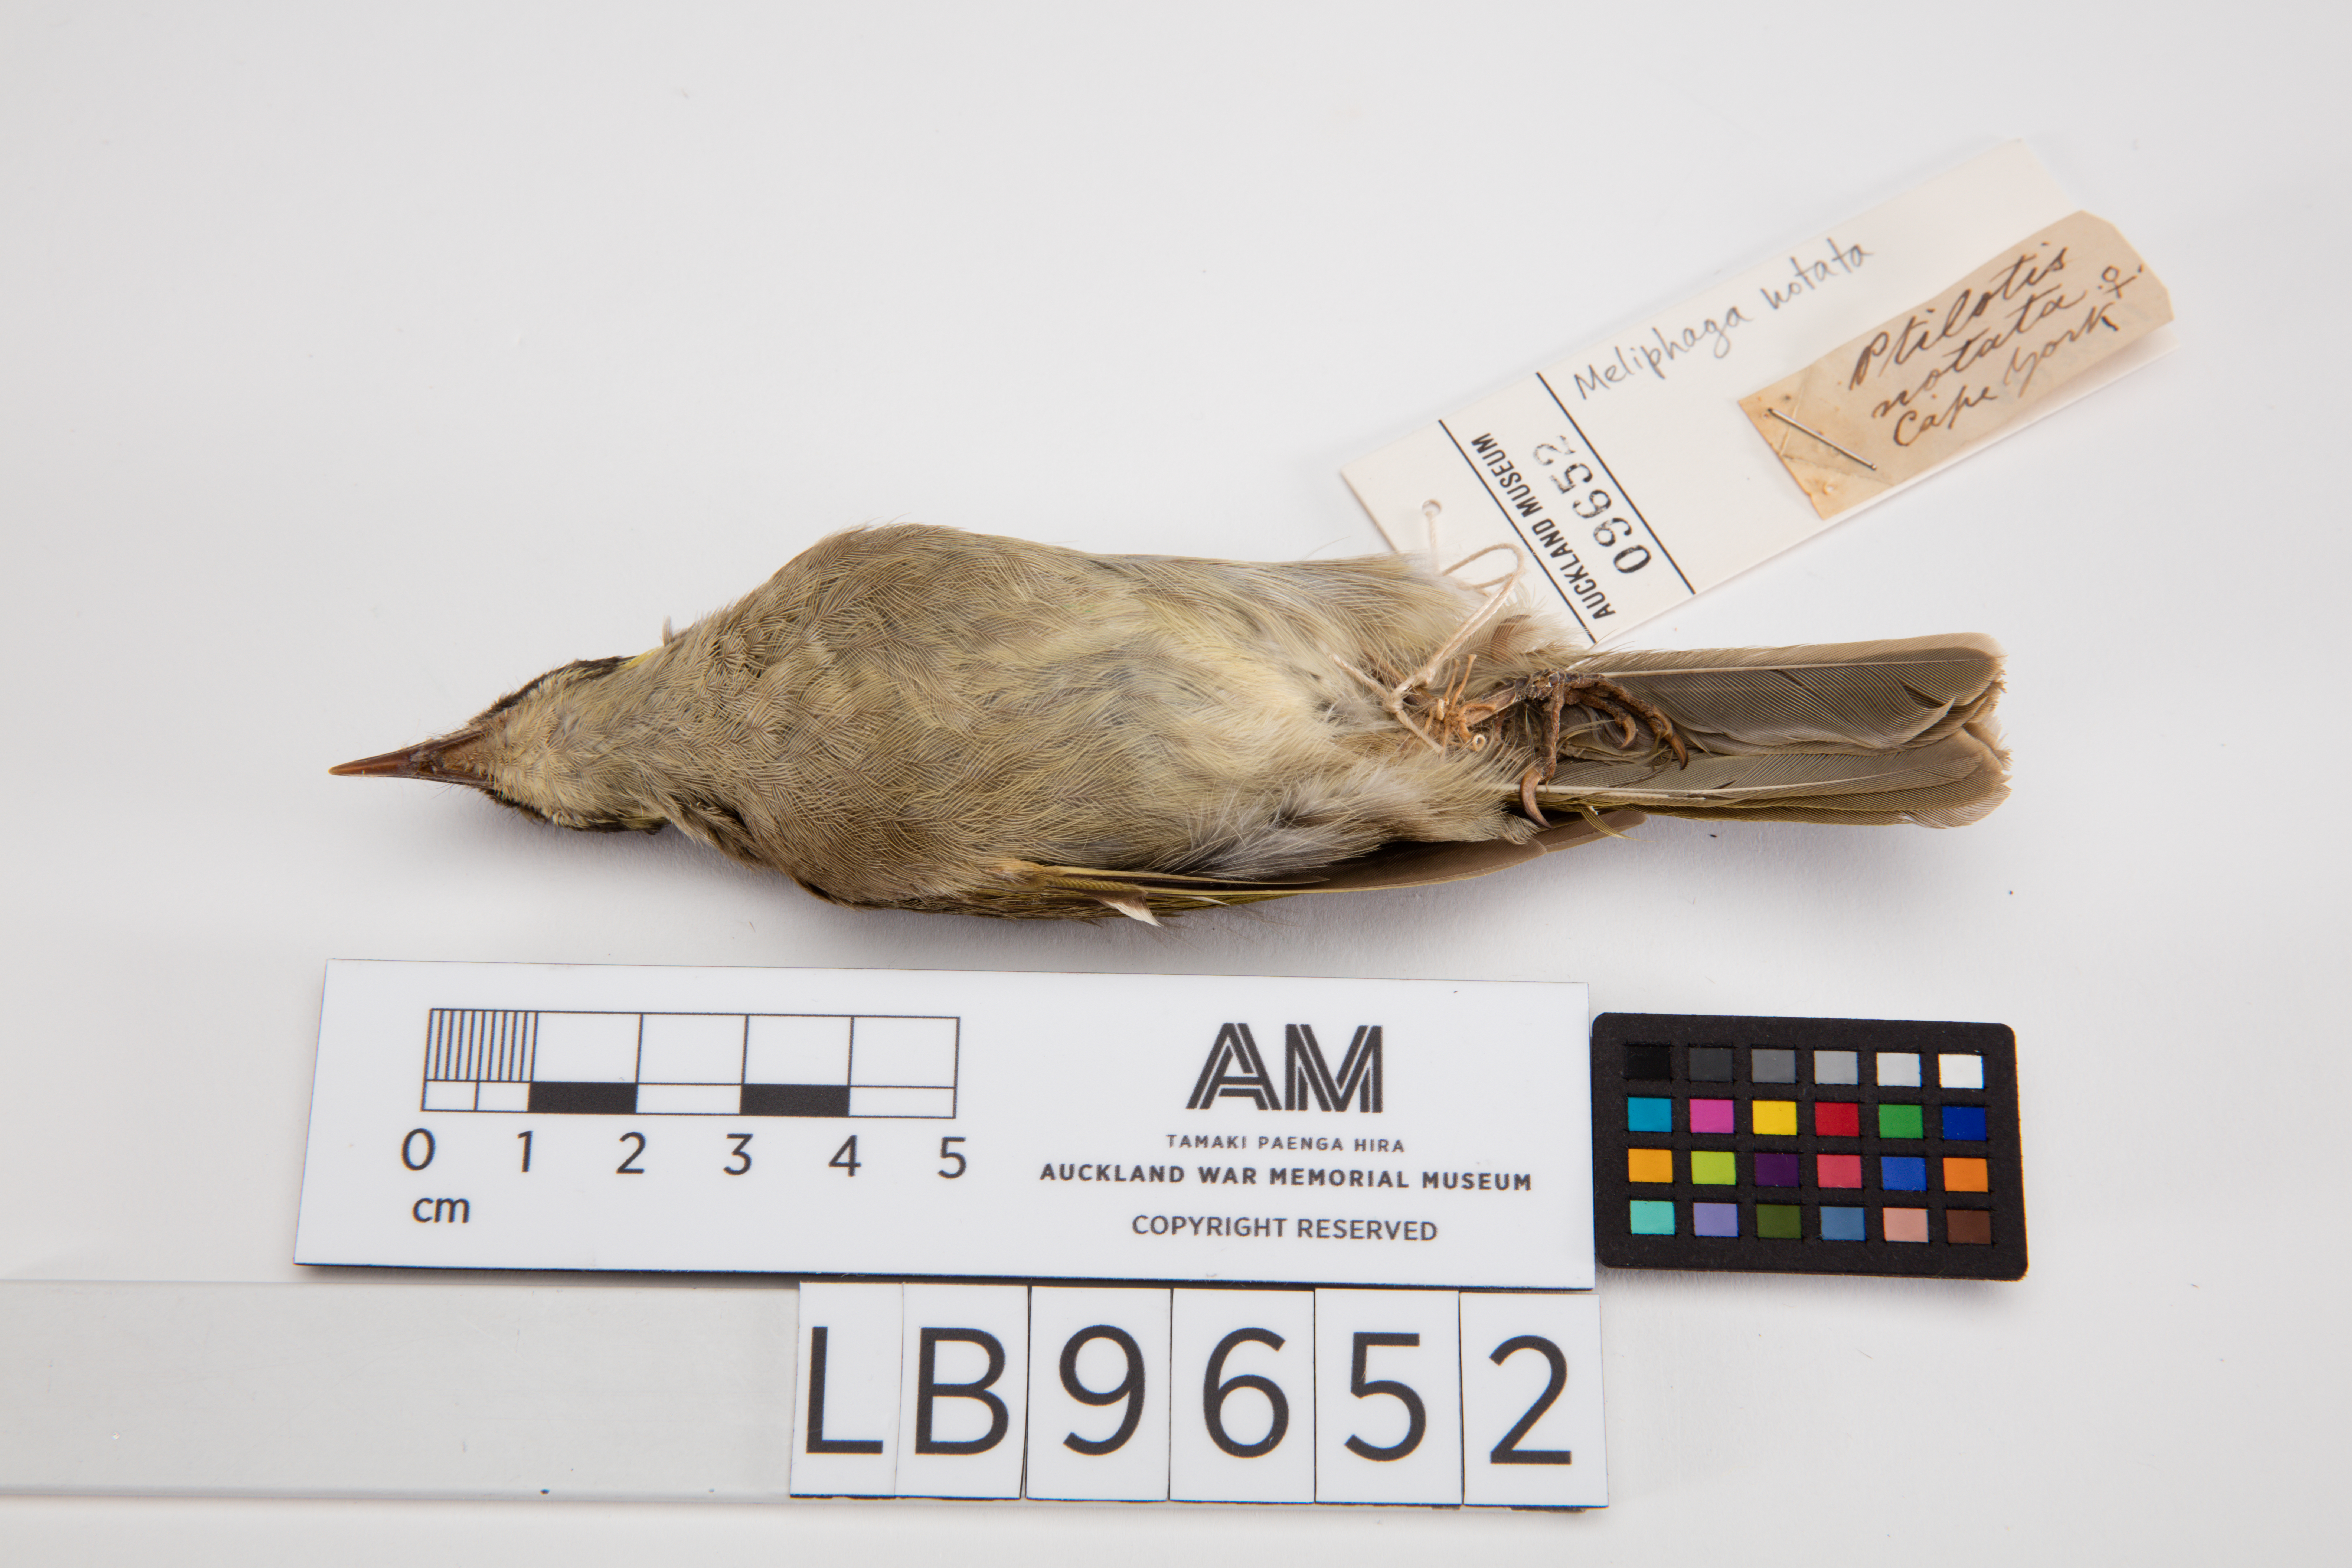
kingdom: Animalia
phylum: Chordata
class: Aves
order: Passeriformes
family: Meliphagidae
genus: Meliphaga
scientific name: Meliphaga notata
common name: Yellow-spotted honeyeater
